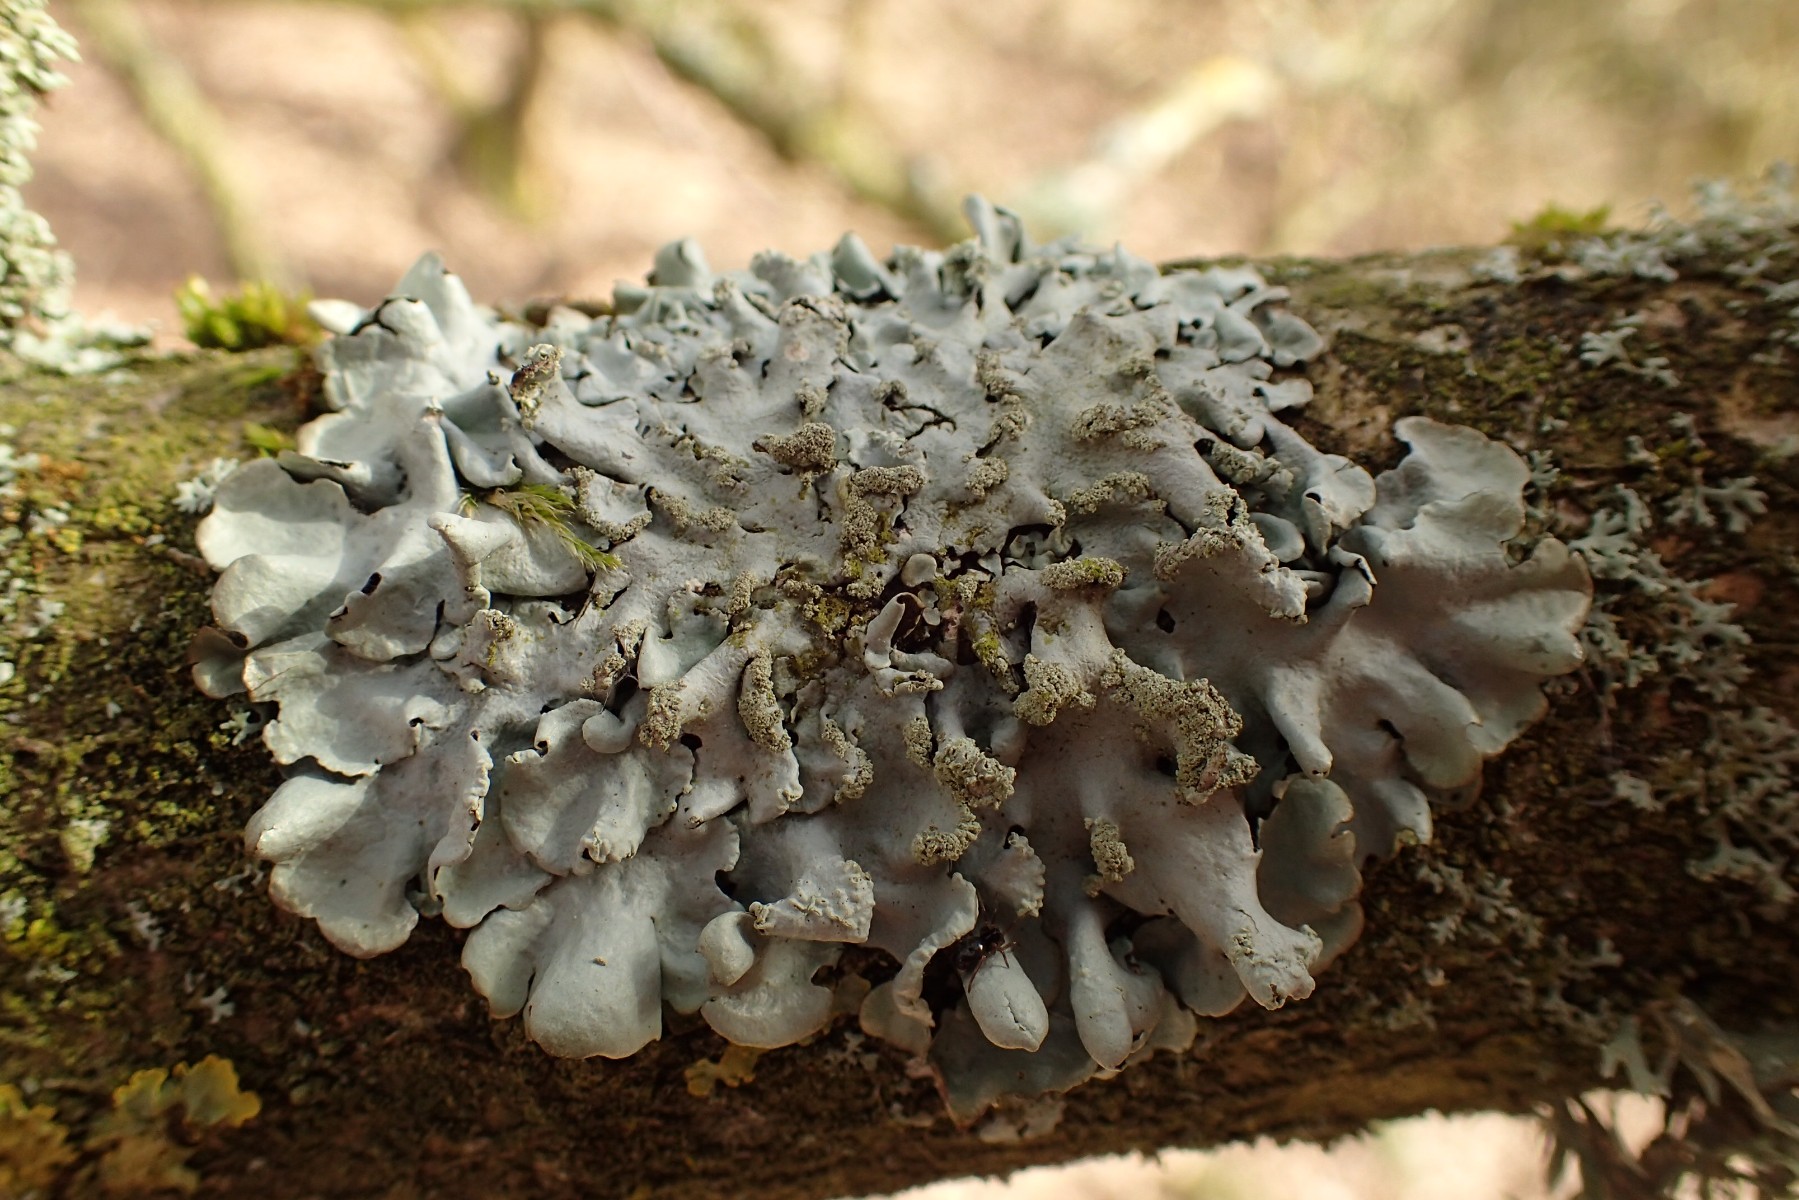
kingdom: Fungi
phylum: Ascomycota
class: Lecanoromycetes
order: Lecanorales
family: Parmeliaceae
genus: Hypotrachyna
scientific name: Hypotrachyna revoluta
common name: bleggrå skållav
